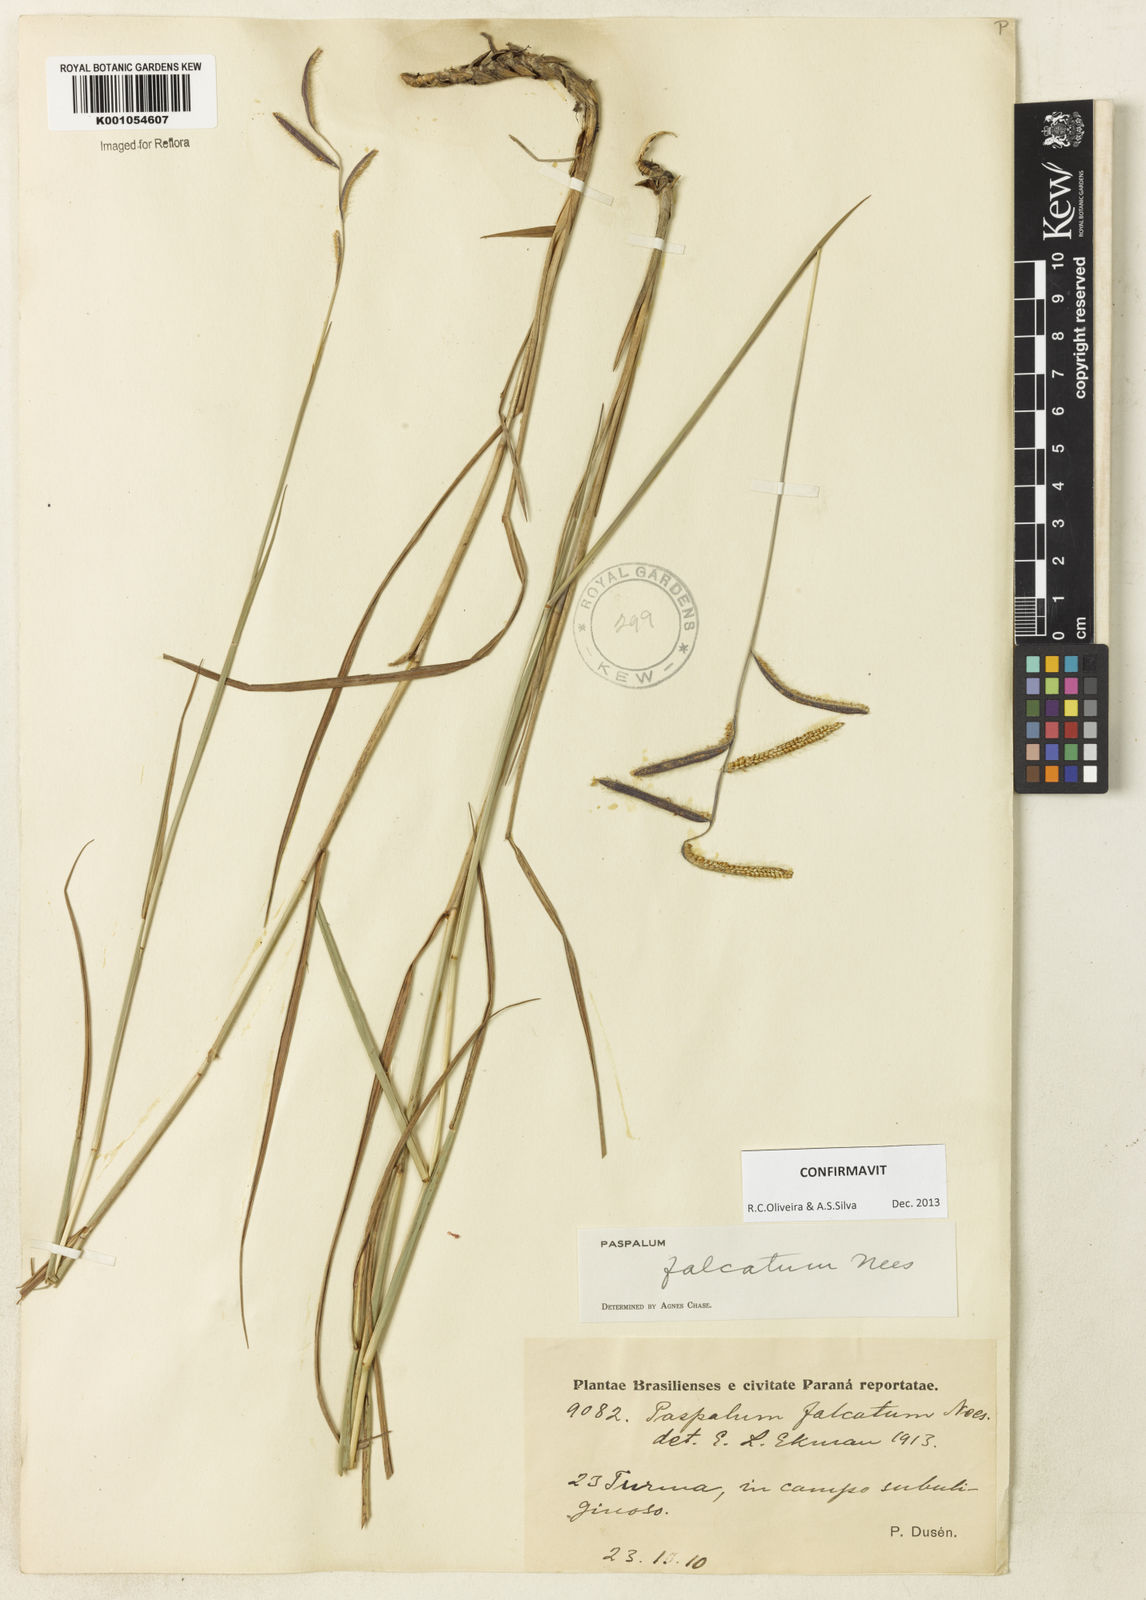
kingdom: Plantae
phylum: Tracheophyta
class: Liliopsida
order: Poales
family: Poaceae
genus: Paspalum
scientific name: Paspalum falcatum
